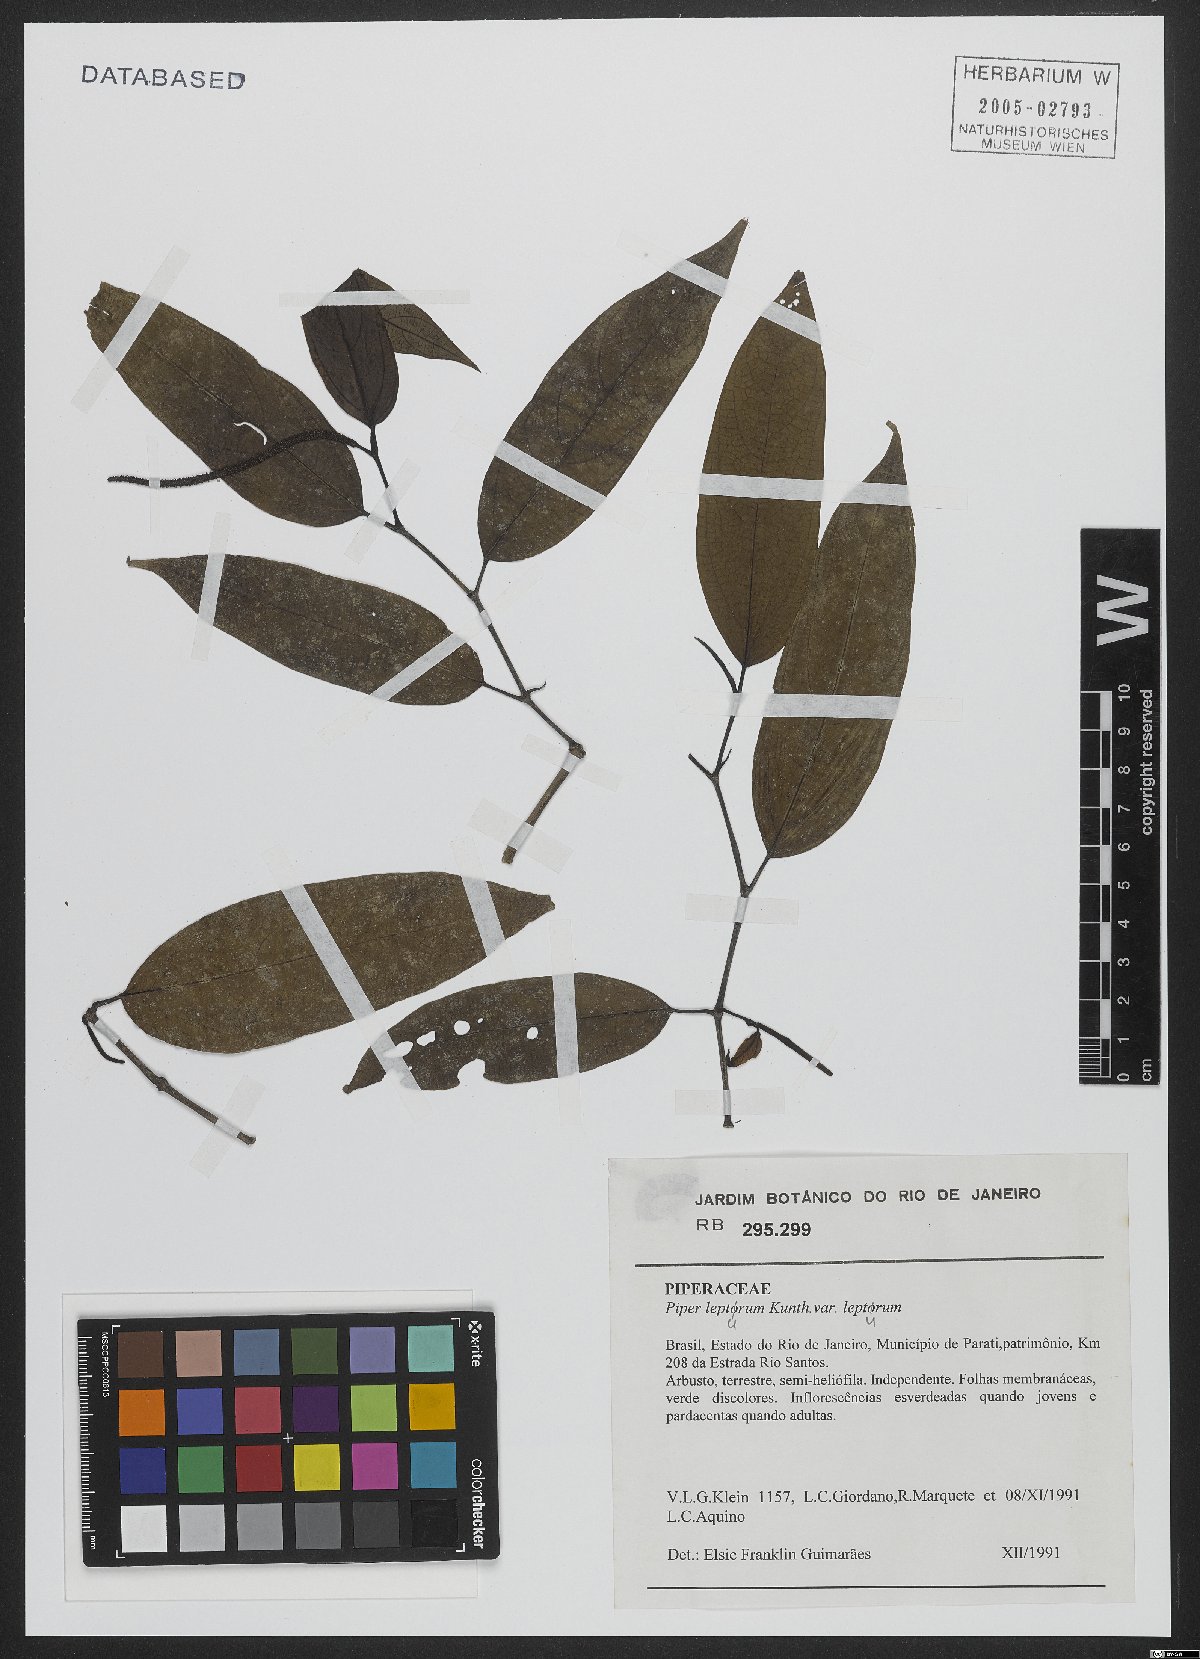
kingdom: Plantae
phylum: Tracheophyta
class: Magnoliopsida
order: Piperales
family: Piperaceae
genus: Piper
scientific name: Piper lepturum
